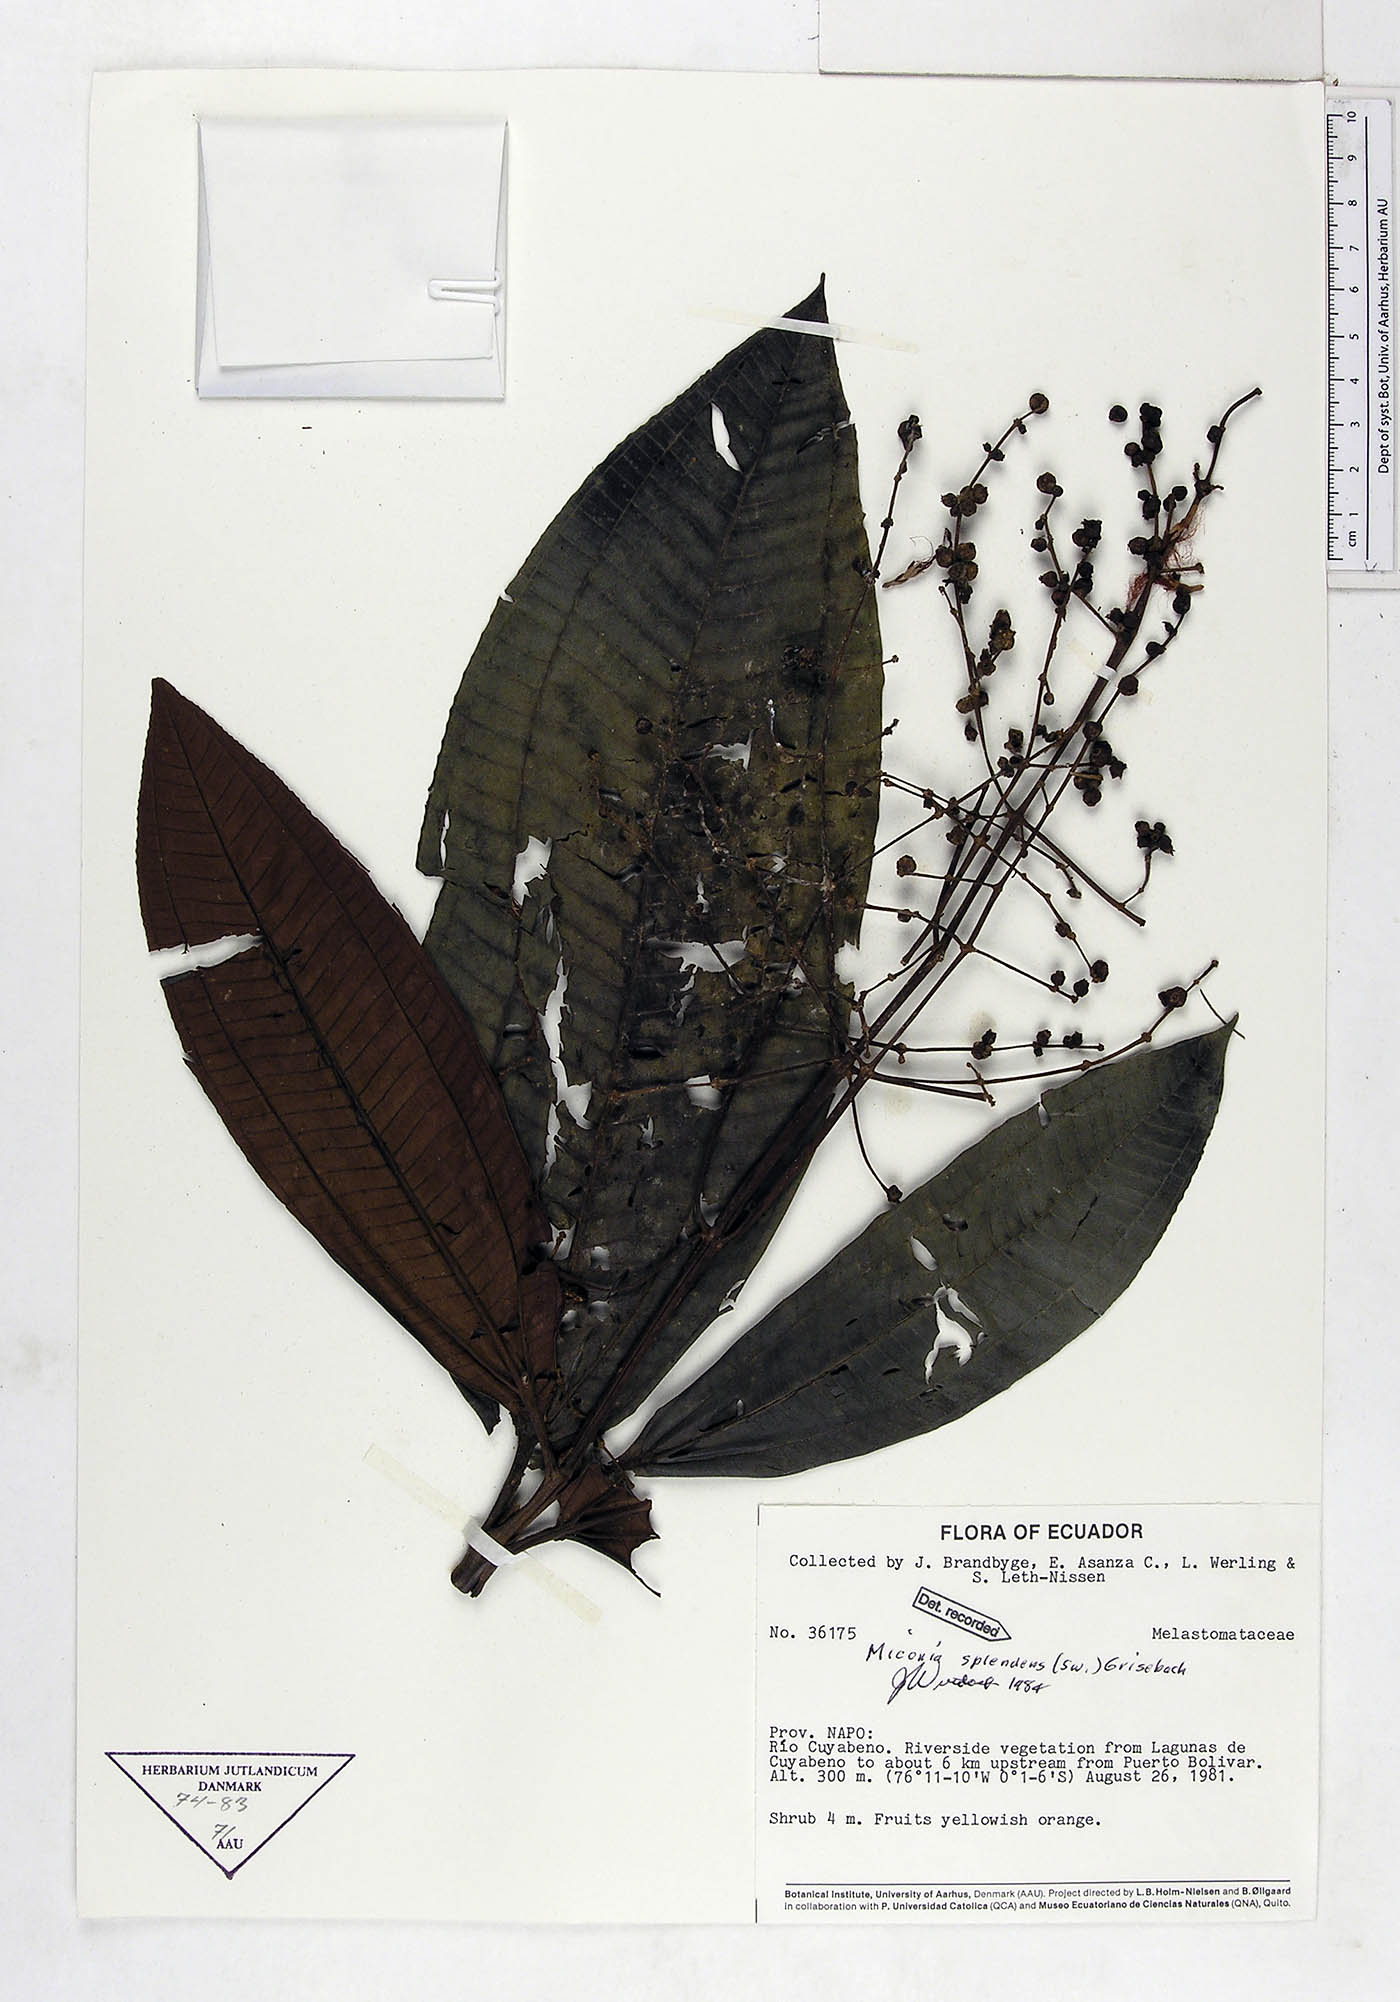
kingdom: Plantae
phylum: Tracheophyta
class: Magnoliopsida
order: Myrtales
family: Melastomataceae
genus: Miconia
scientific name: Miconia splendens
